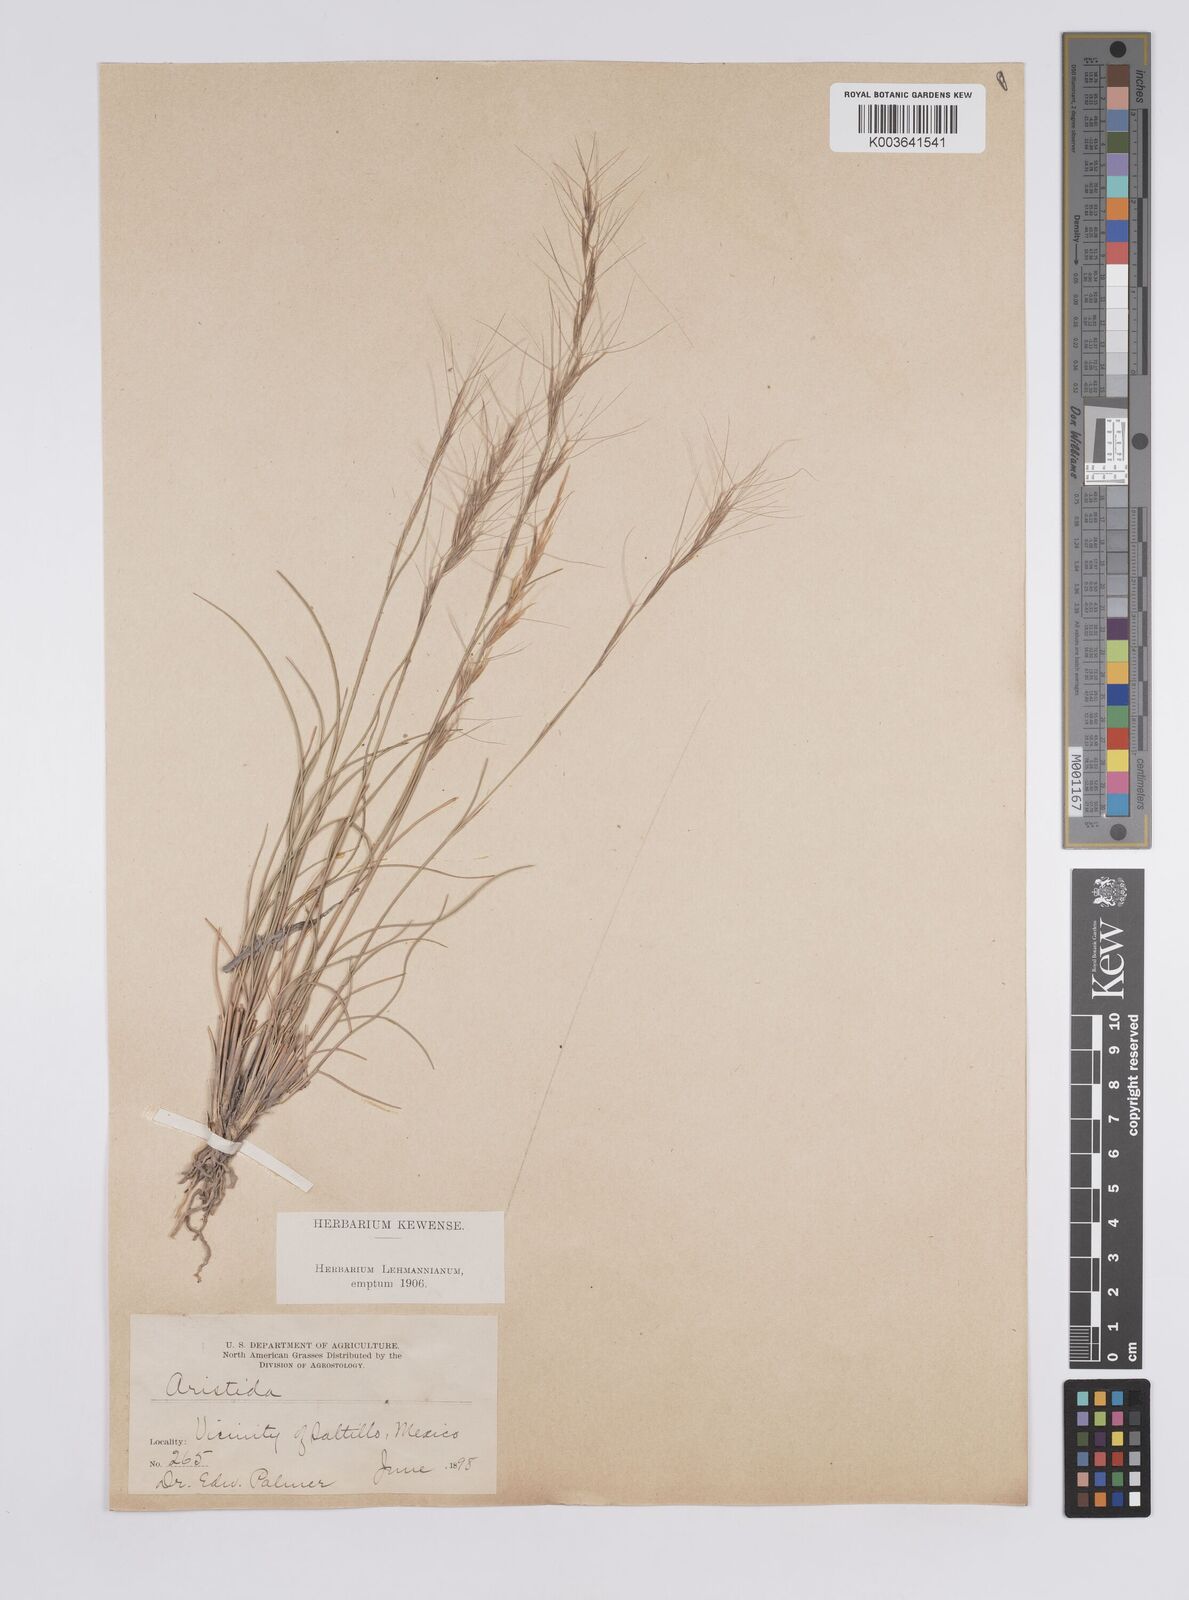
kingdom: Plantae
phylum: Tracheophyta
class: Liliopsida
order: Poales
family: Poaceae
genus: Aristida
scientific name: Aristida
